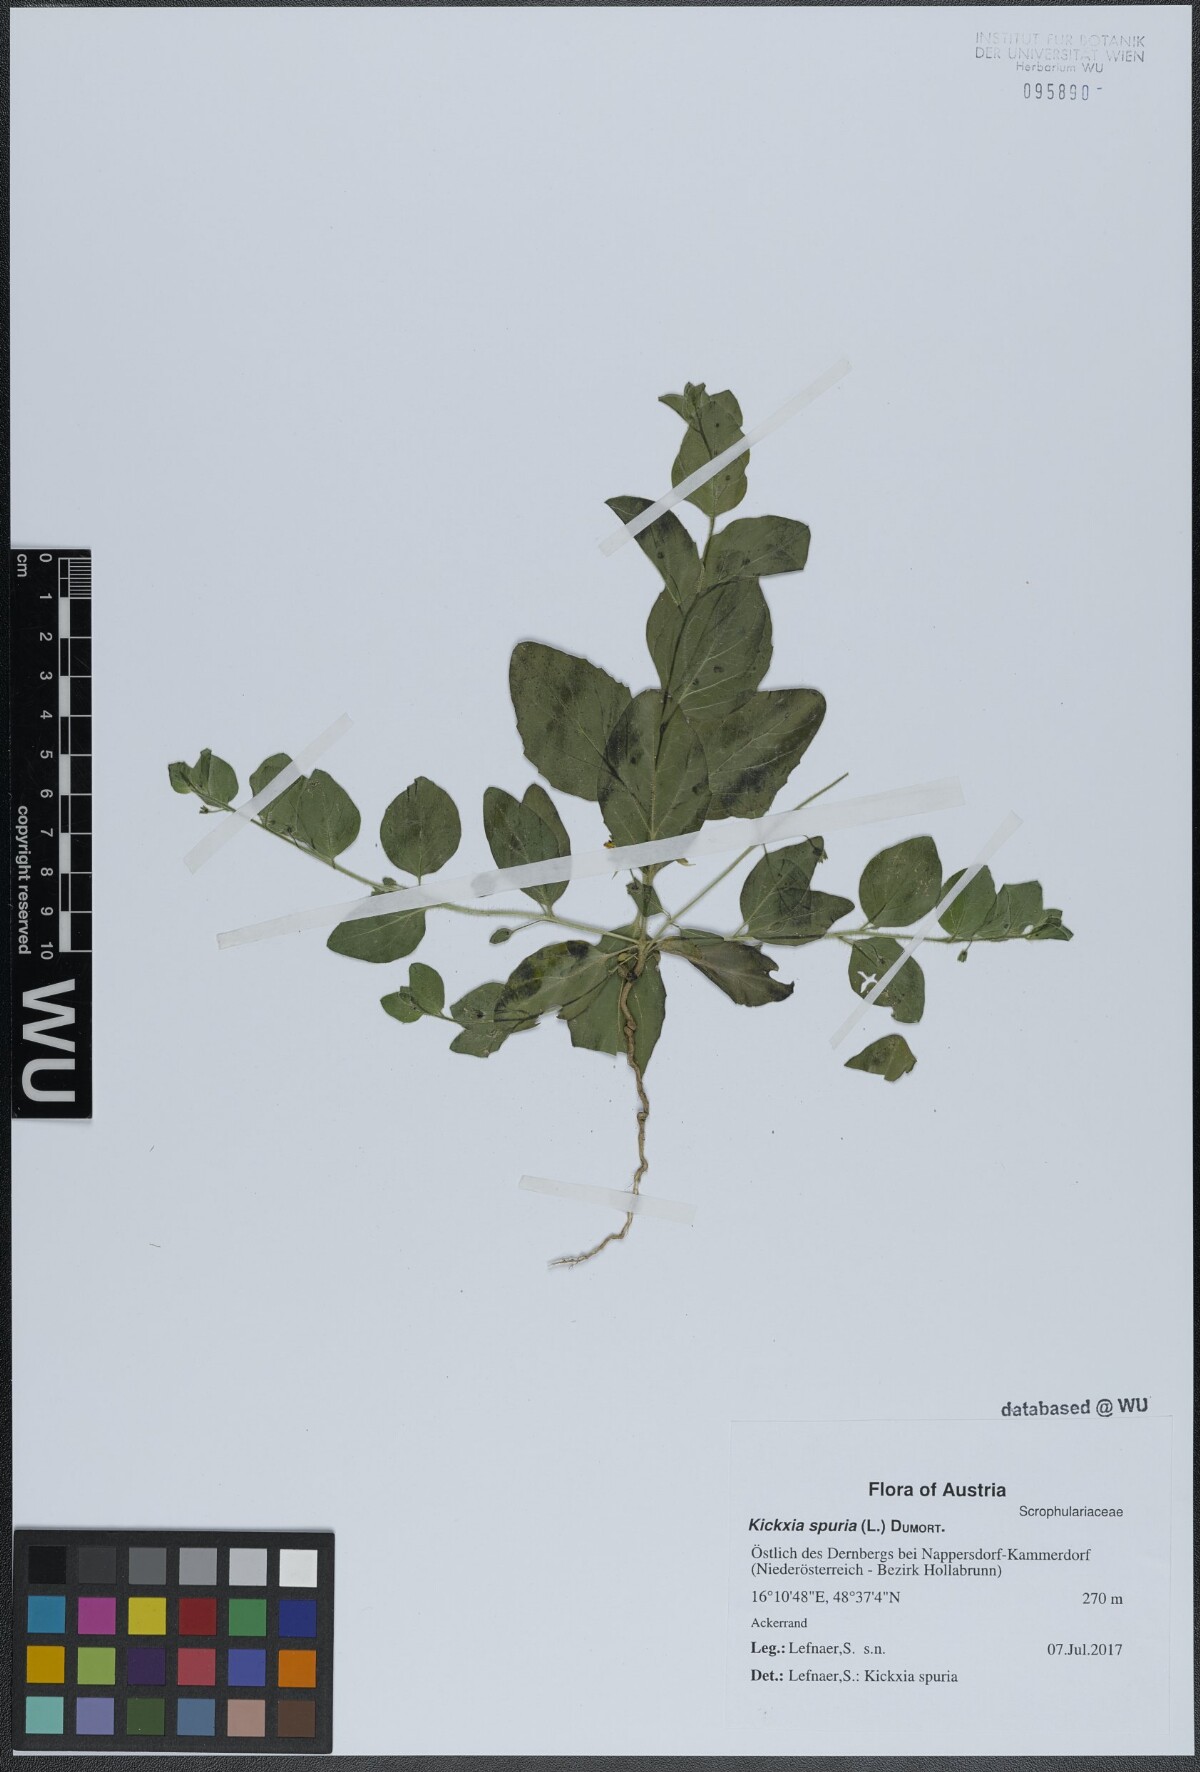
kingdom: Plantae
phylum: Tracheophyta
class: Magnoliopsida
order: Lamiales
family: Plantaginaceae
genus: Kickxia
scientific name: Kickxia spuria
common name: Round-leaved fluellen
